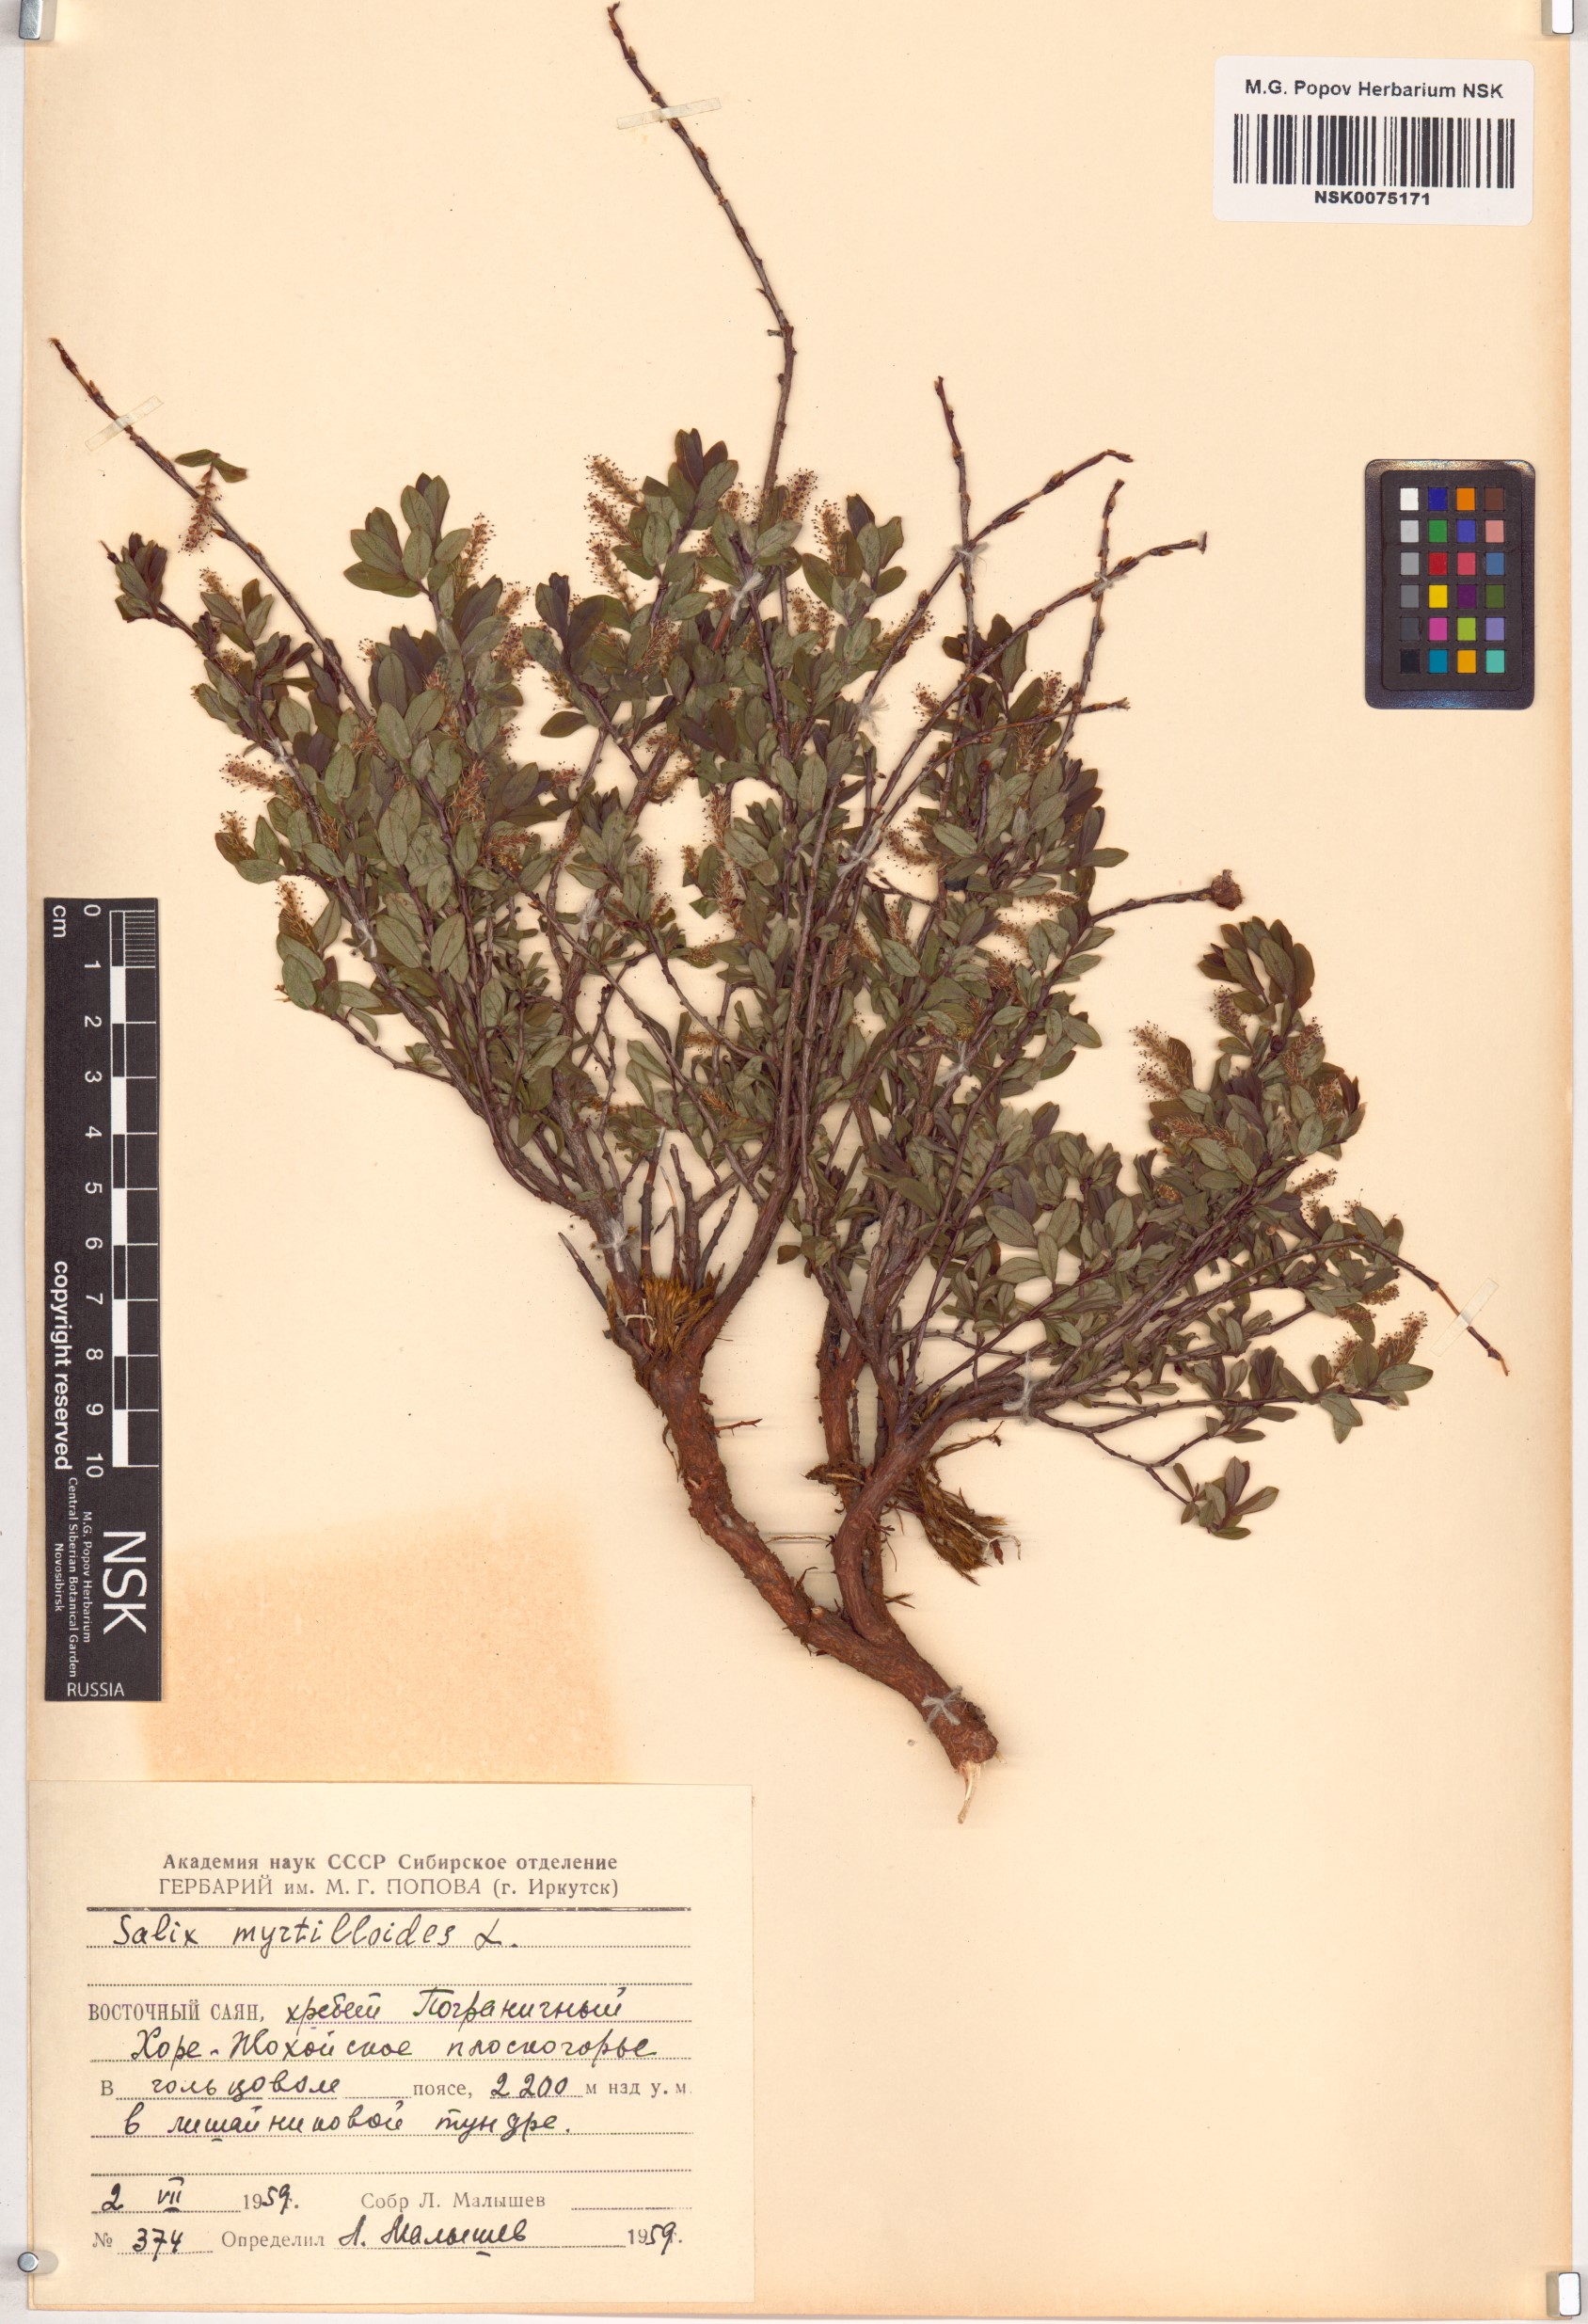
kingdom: Plantae
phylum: Tracheophyta
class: Magnoliopsida
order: Malpighiales
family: Salicaceae
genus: Salix
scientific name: Salix myrtilloides
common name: Myrtle-leaved willow
